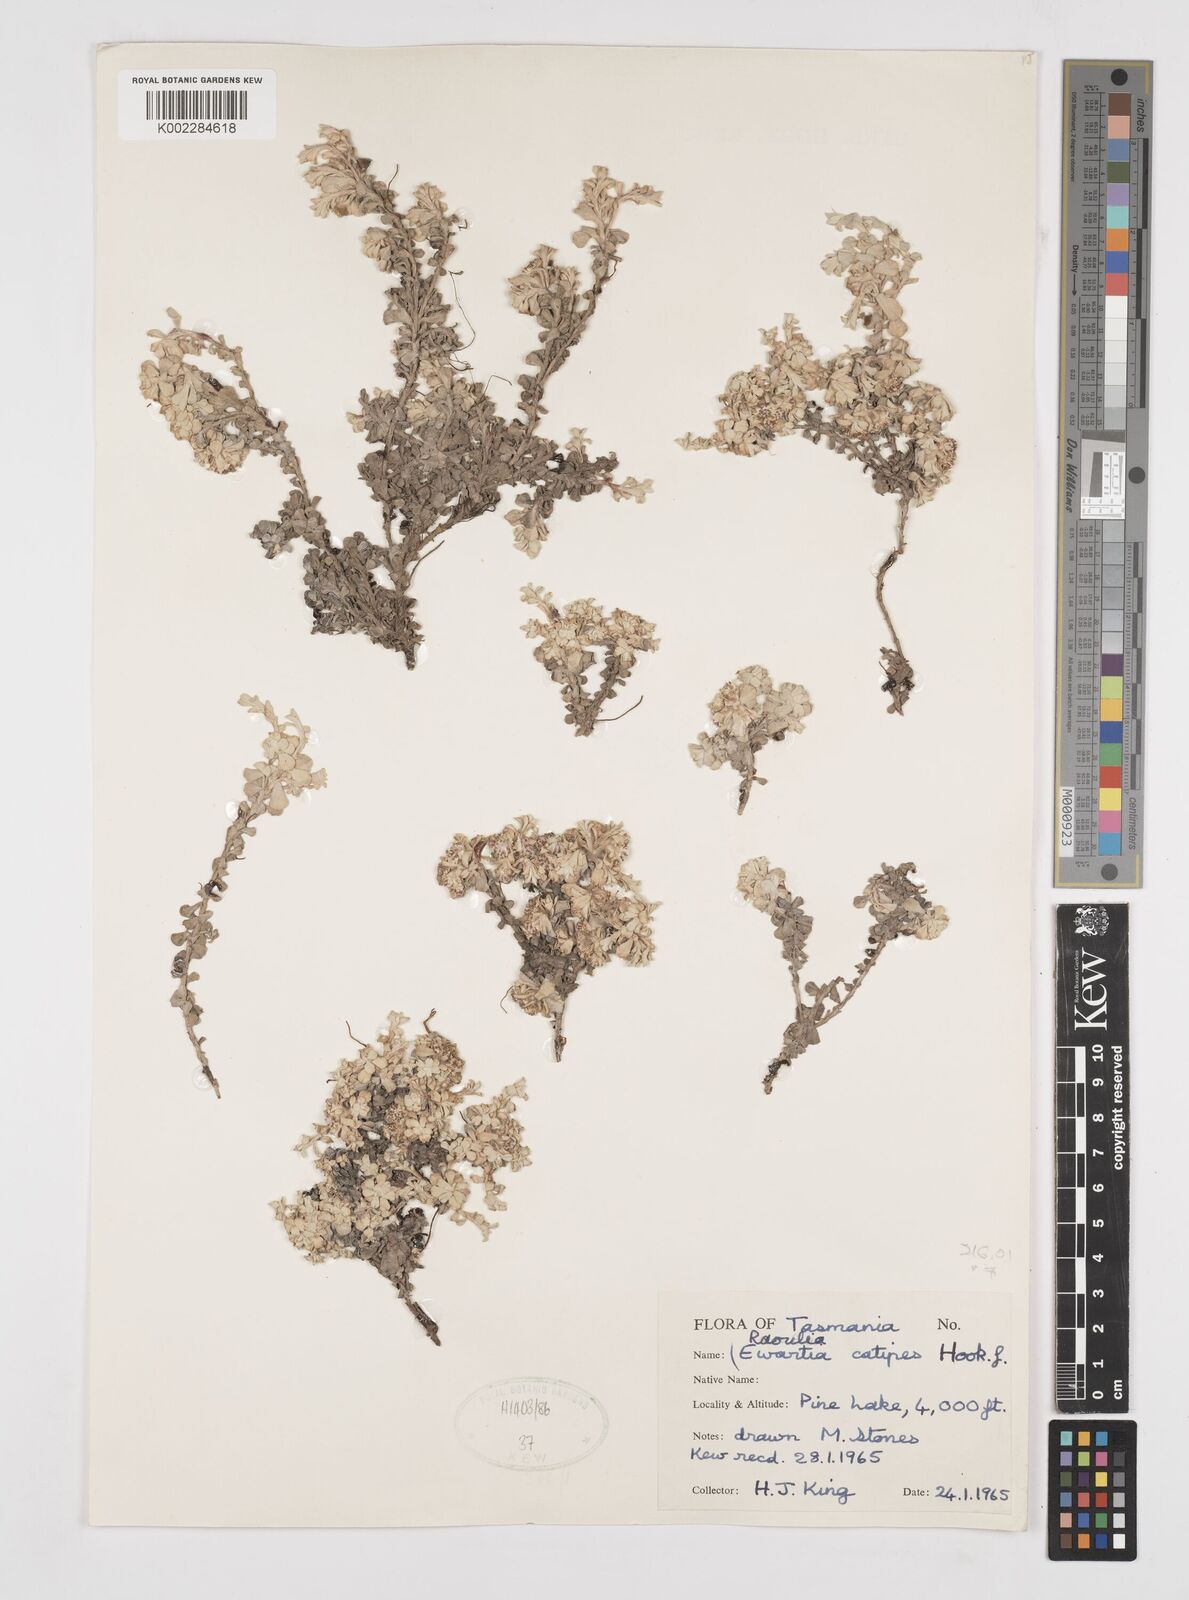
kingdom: Plantae
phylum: Tracheophyta
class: Magnoliopsida
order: Asterales
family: Asteraceae
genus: Ewartia
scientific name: Ewartia catipes
